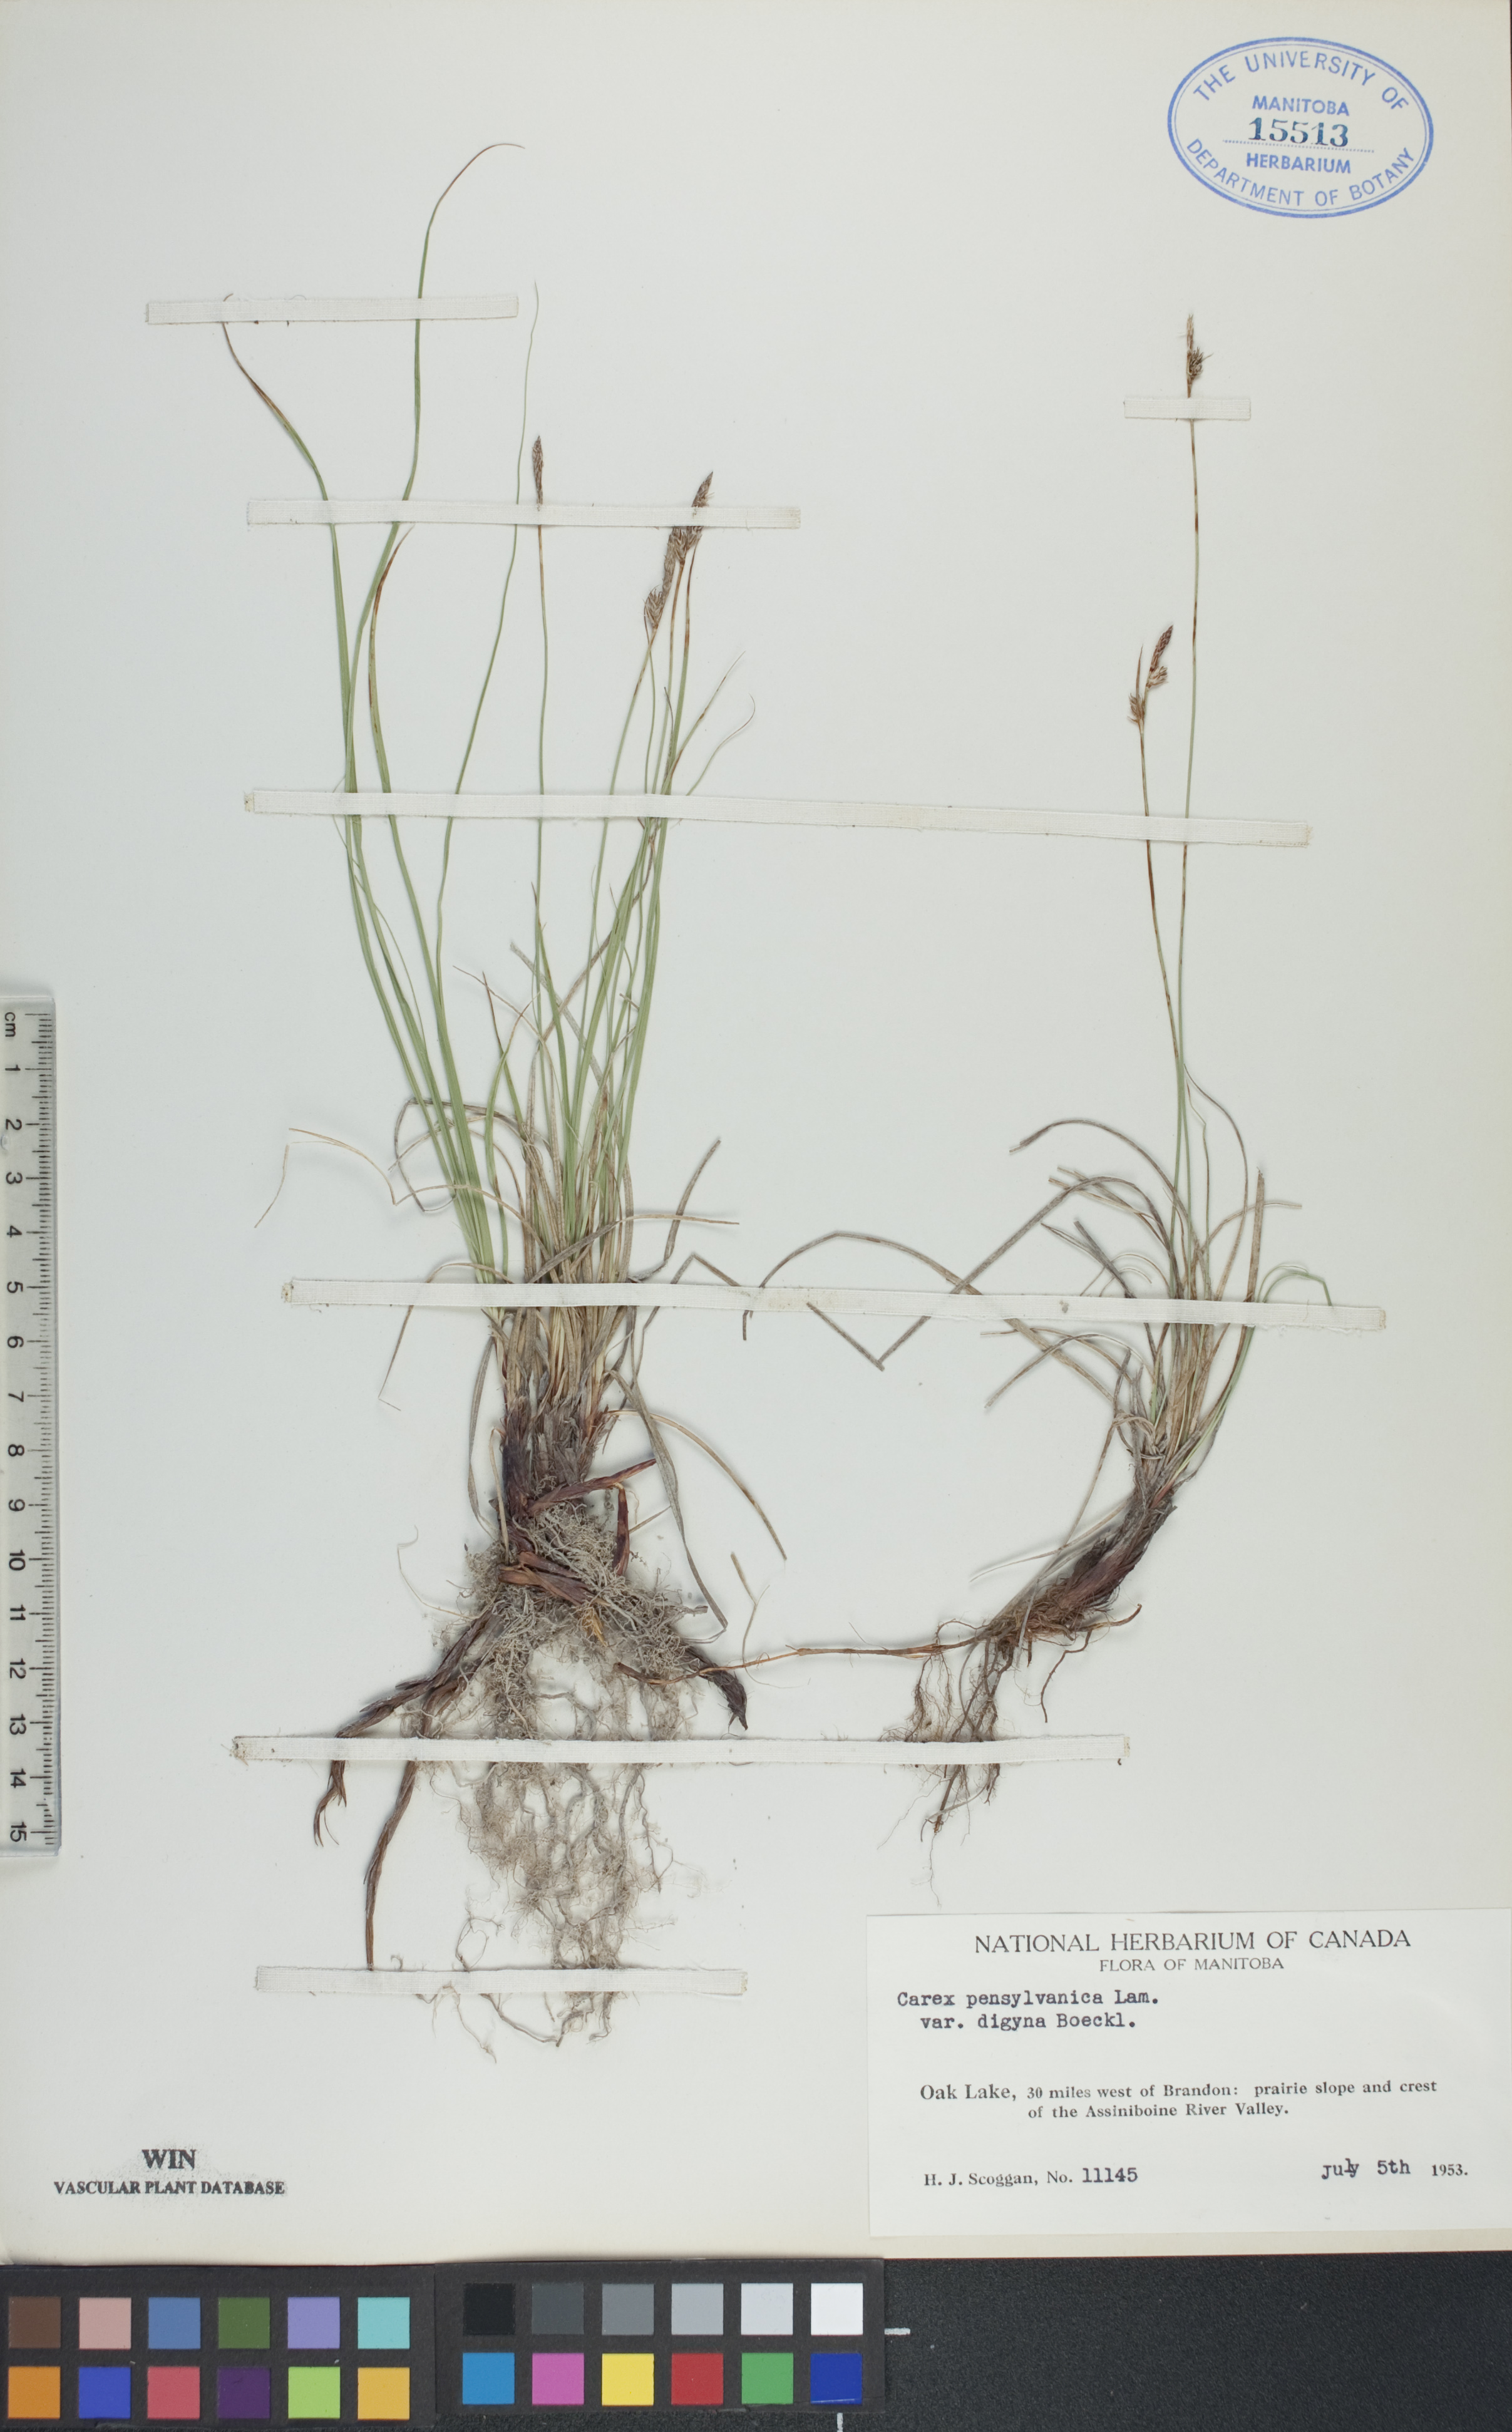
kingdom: Plantae
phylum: Tracheophyta
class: Liliopsida
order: Poales
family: Cyperaceae
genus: Carex
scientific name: Carex pensylvanica
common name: Common oak sedge
